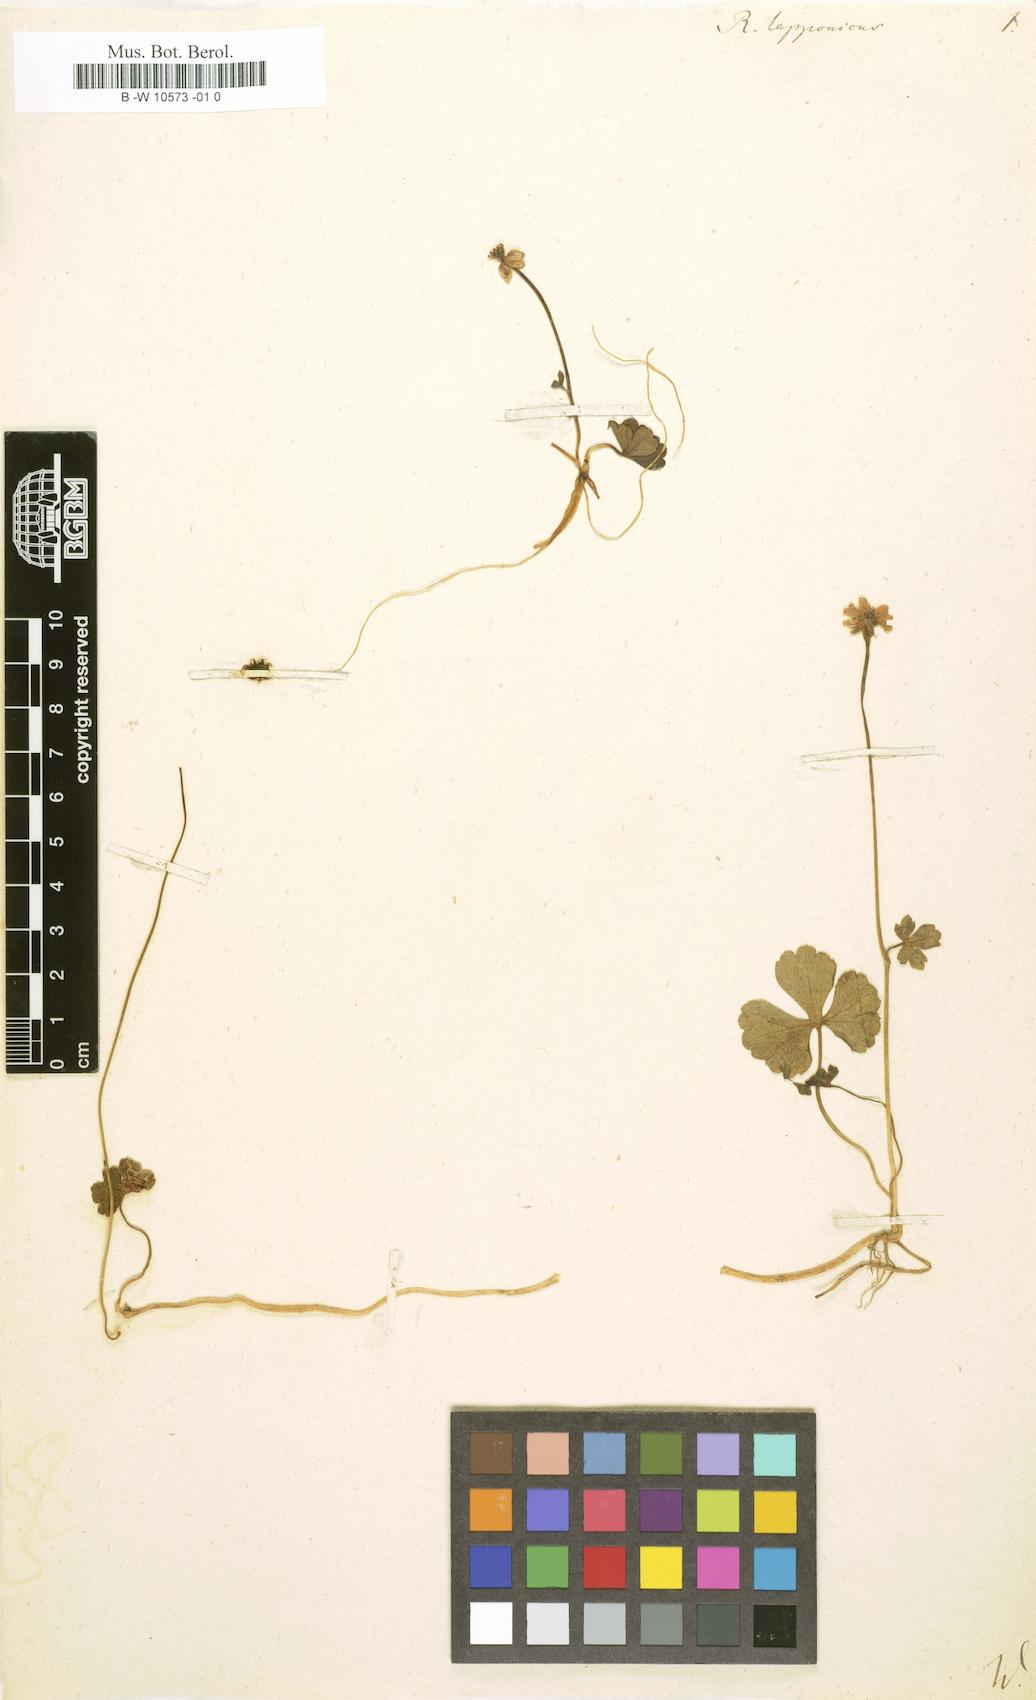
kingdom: Plantae
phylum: Tracheophyta
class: Magnoliopsida
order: Ranunculales
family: Ranunculaceae
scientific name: Ranunculaceae
